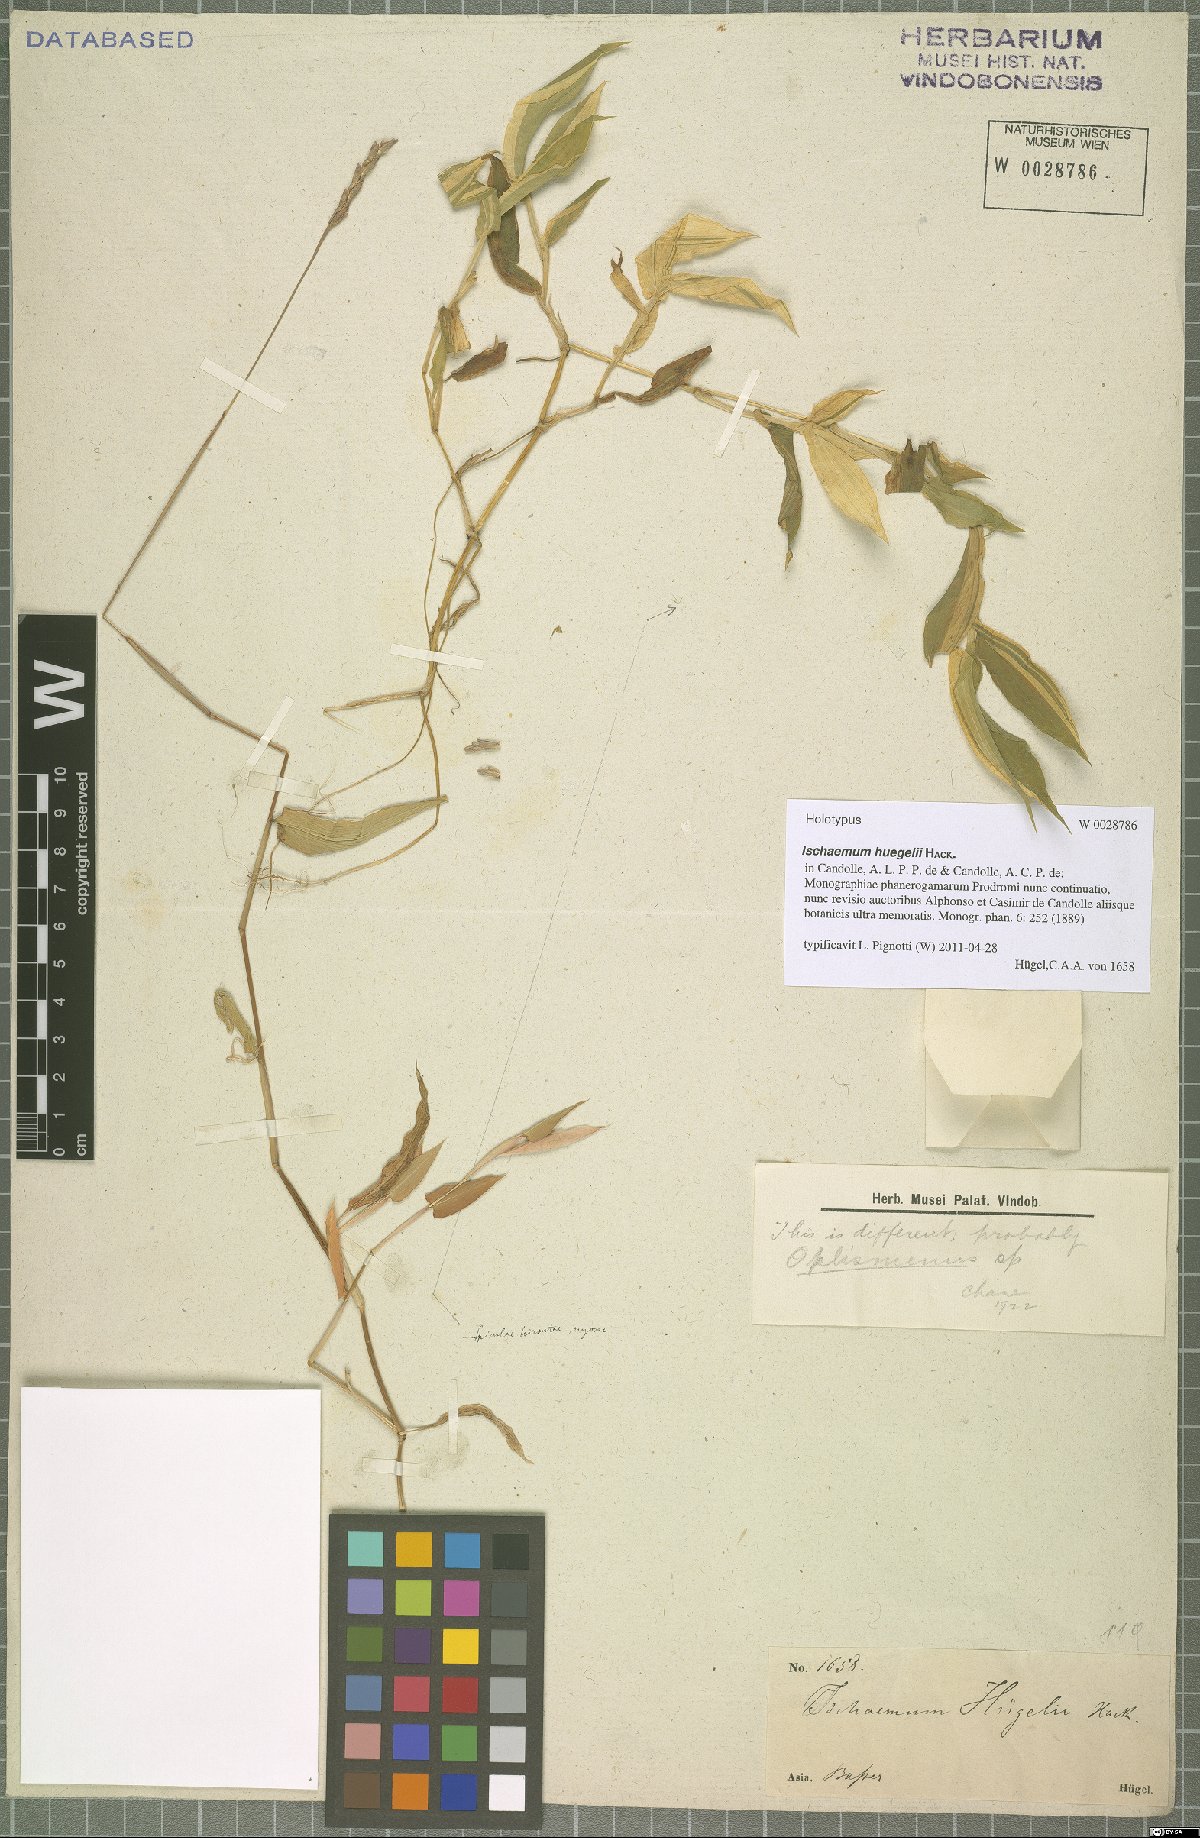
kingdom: Plantae
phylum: Tracheophyta
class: Liliopsida
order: Poales
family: Poaceae
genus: Ischaemum
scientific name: Ischaemum huegelii
